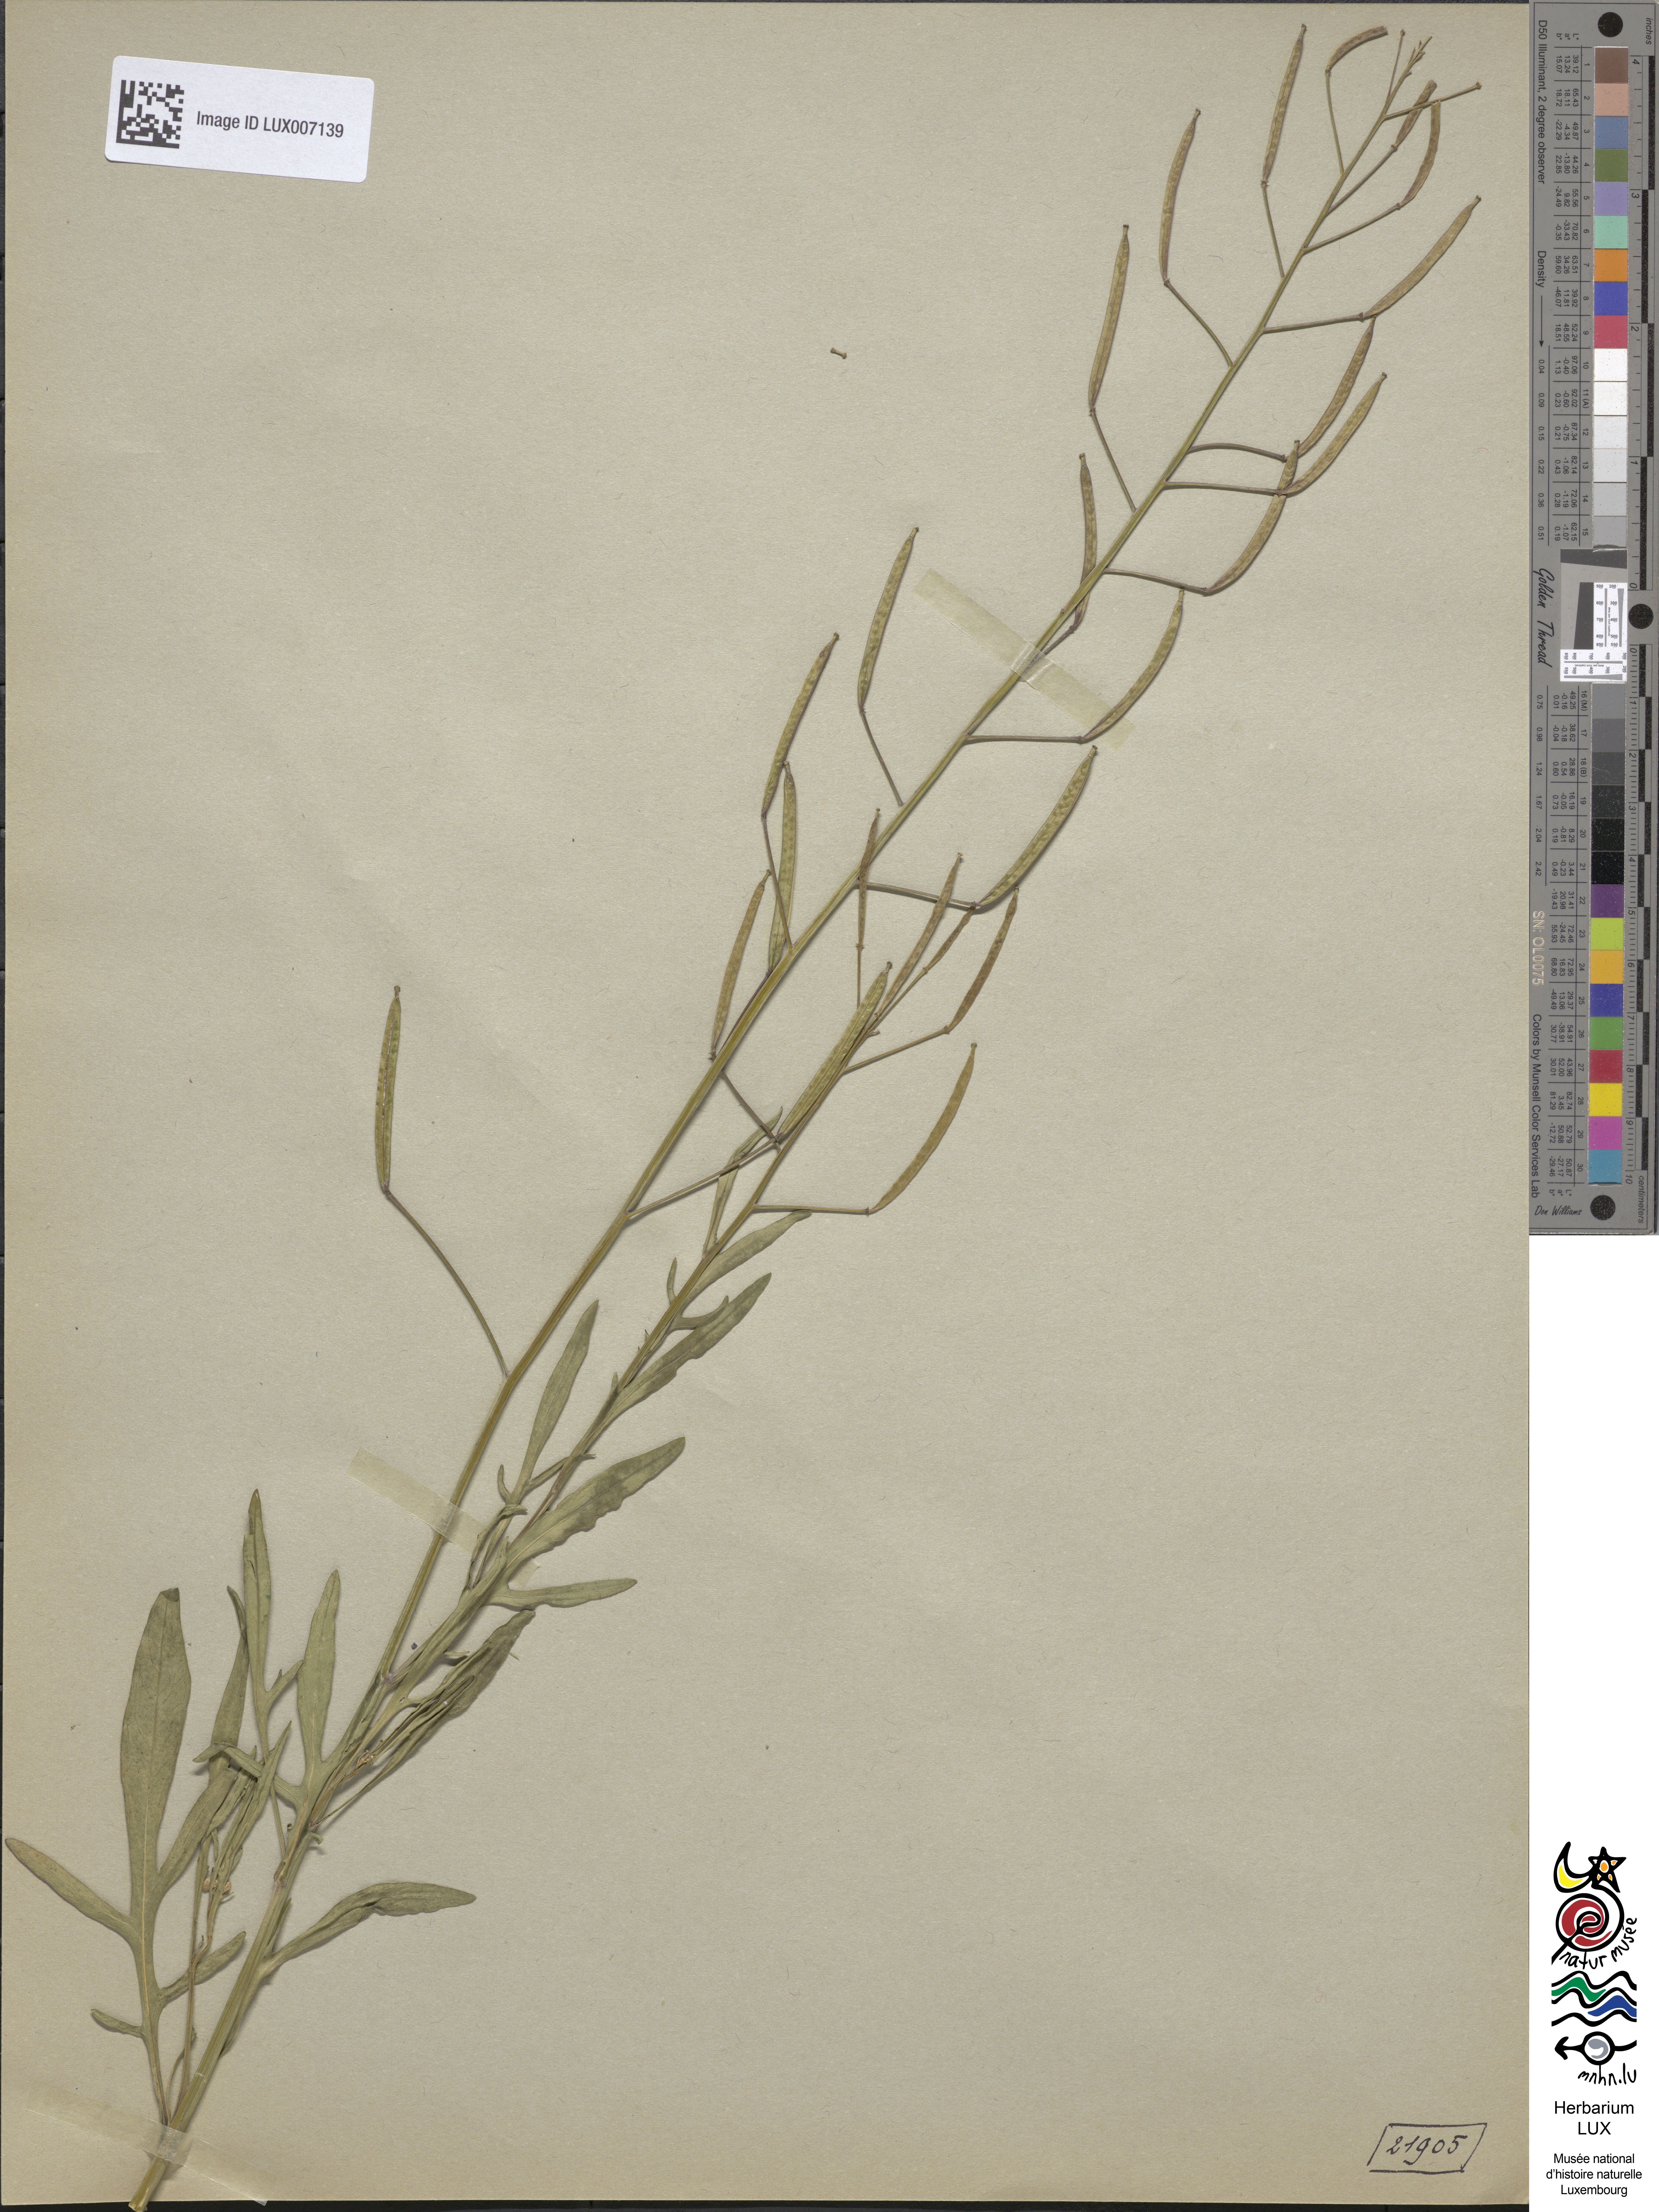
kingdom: Plantae
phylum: Tracheophyta
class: Magnoliopsida
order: Brassicales
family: Brassicaceae
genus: Diplotaxis
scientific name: Diplotaxis tenuifolia
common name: Perennial wall-rocket
